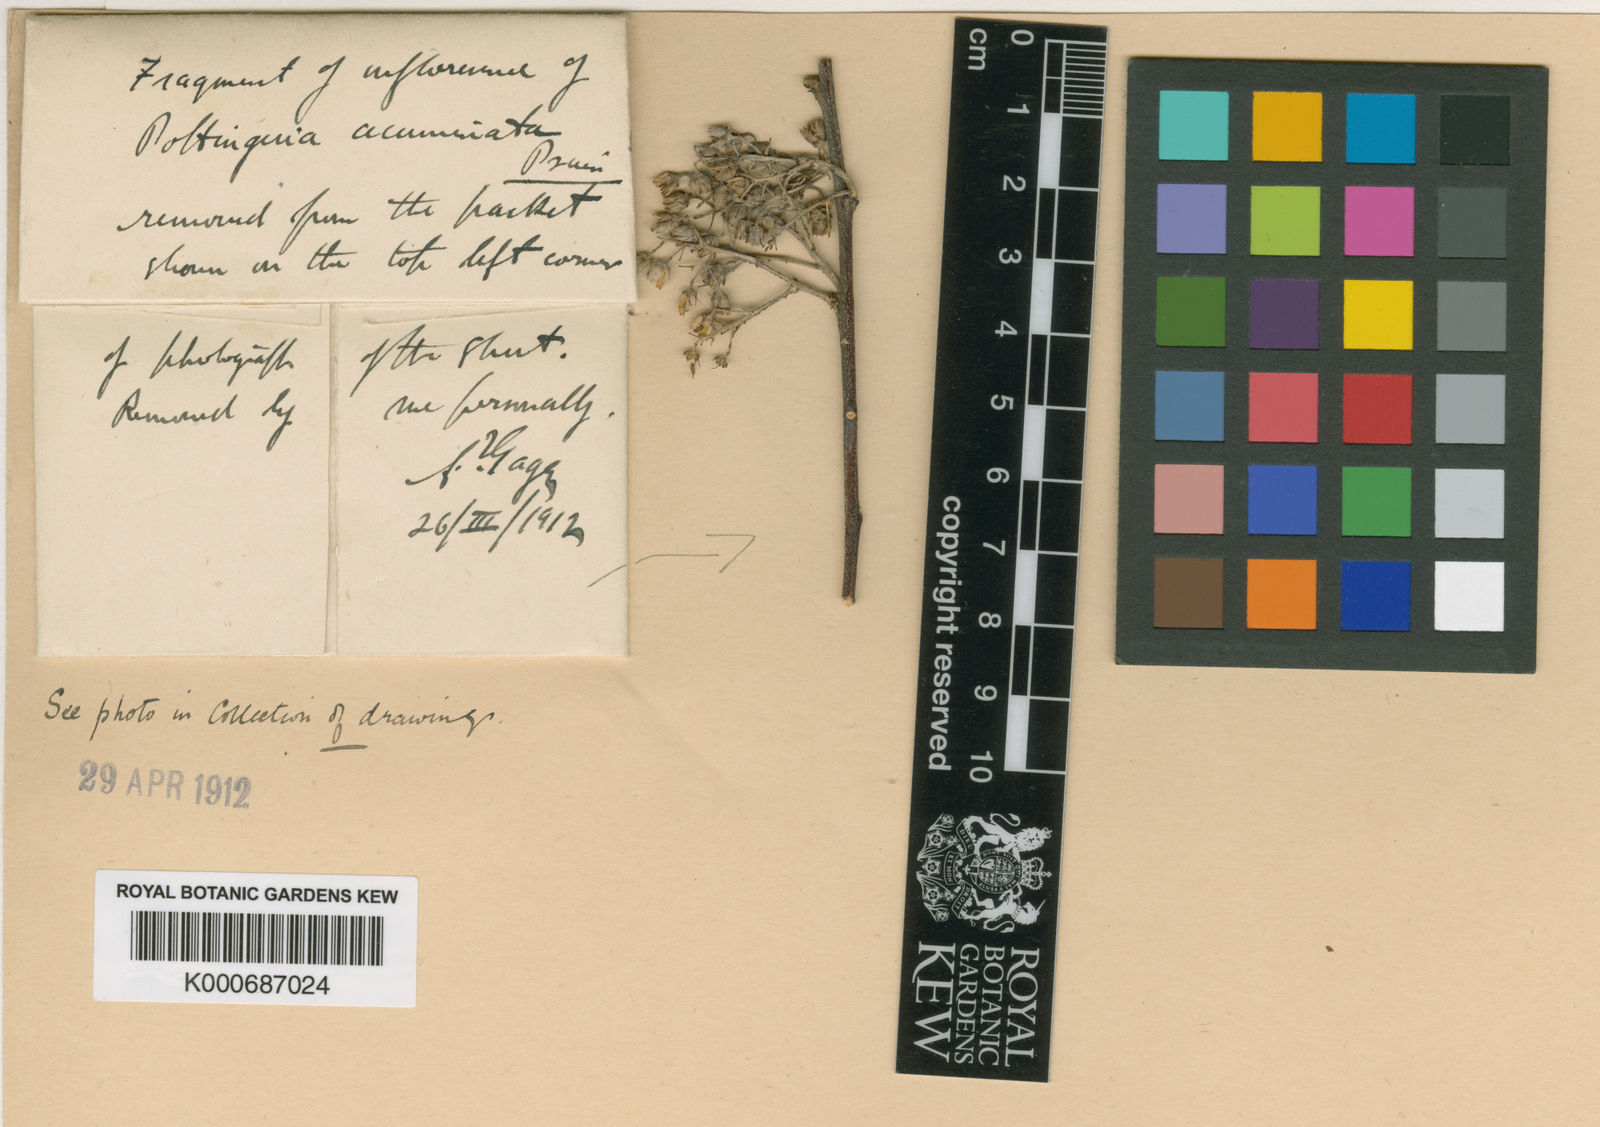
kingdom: Plantae
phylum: Tracheophyta
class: Magnoliopsida
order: Celastrales
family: Celastraceae
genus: Pottingeria
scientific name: Pottingeria acuminata
